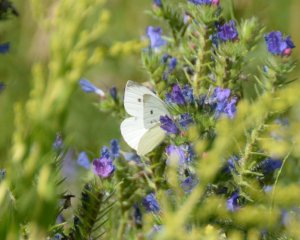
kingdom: Animalia
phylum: Arthropoda
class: Insecta
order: Lepidoptera
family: Pieridae
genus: Pieris
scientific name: Pieris rapae
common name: Cabbage White
